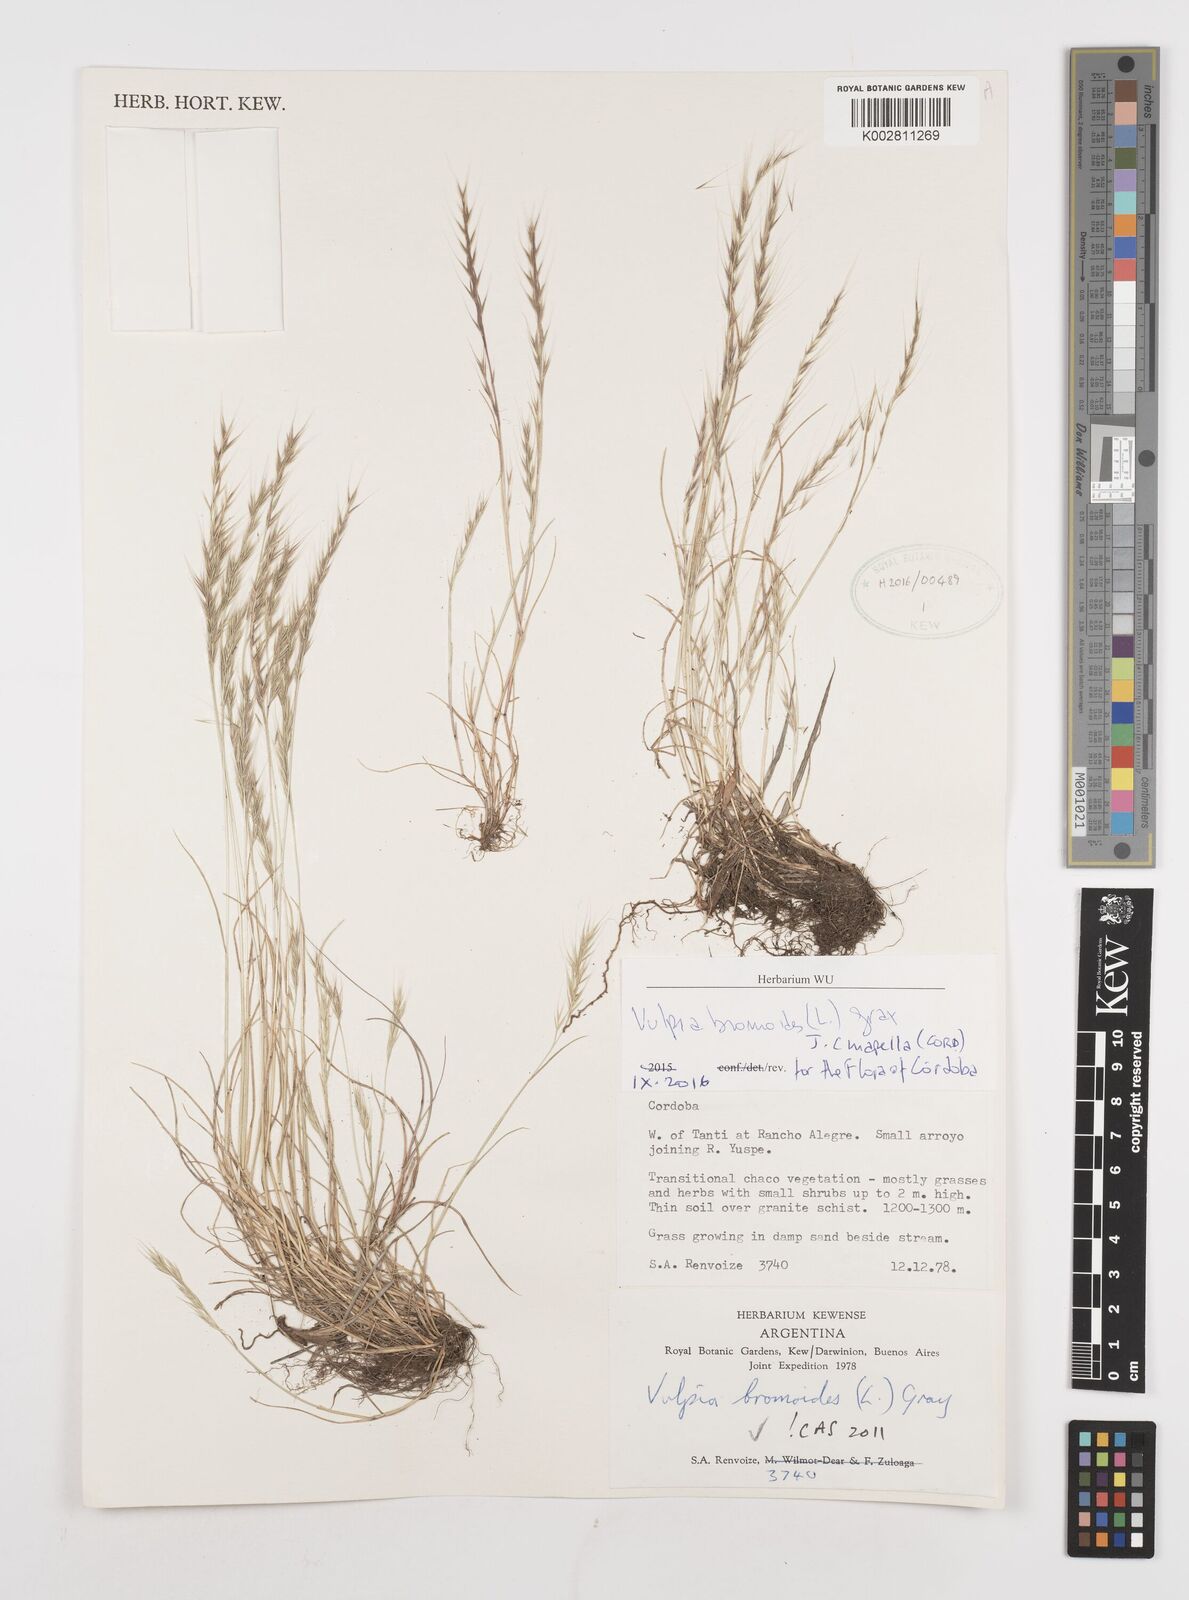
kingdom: Plantae
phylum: Tracheophyta
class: Liliopsida
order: Poales
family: Poaceae
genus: Festuca
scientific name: Festuca bromoides
